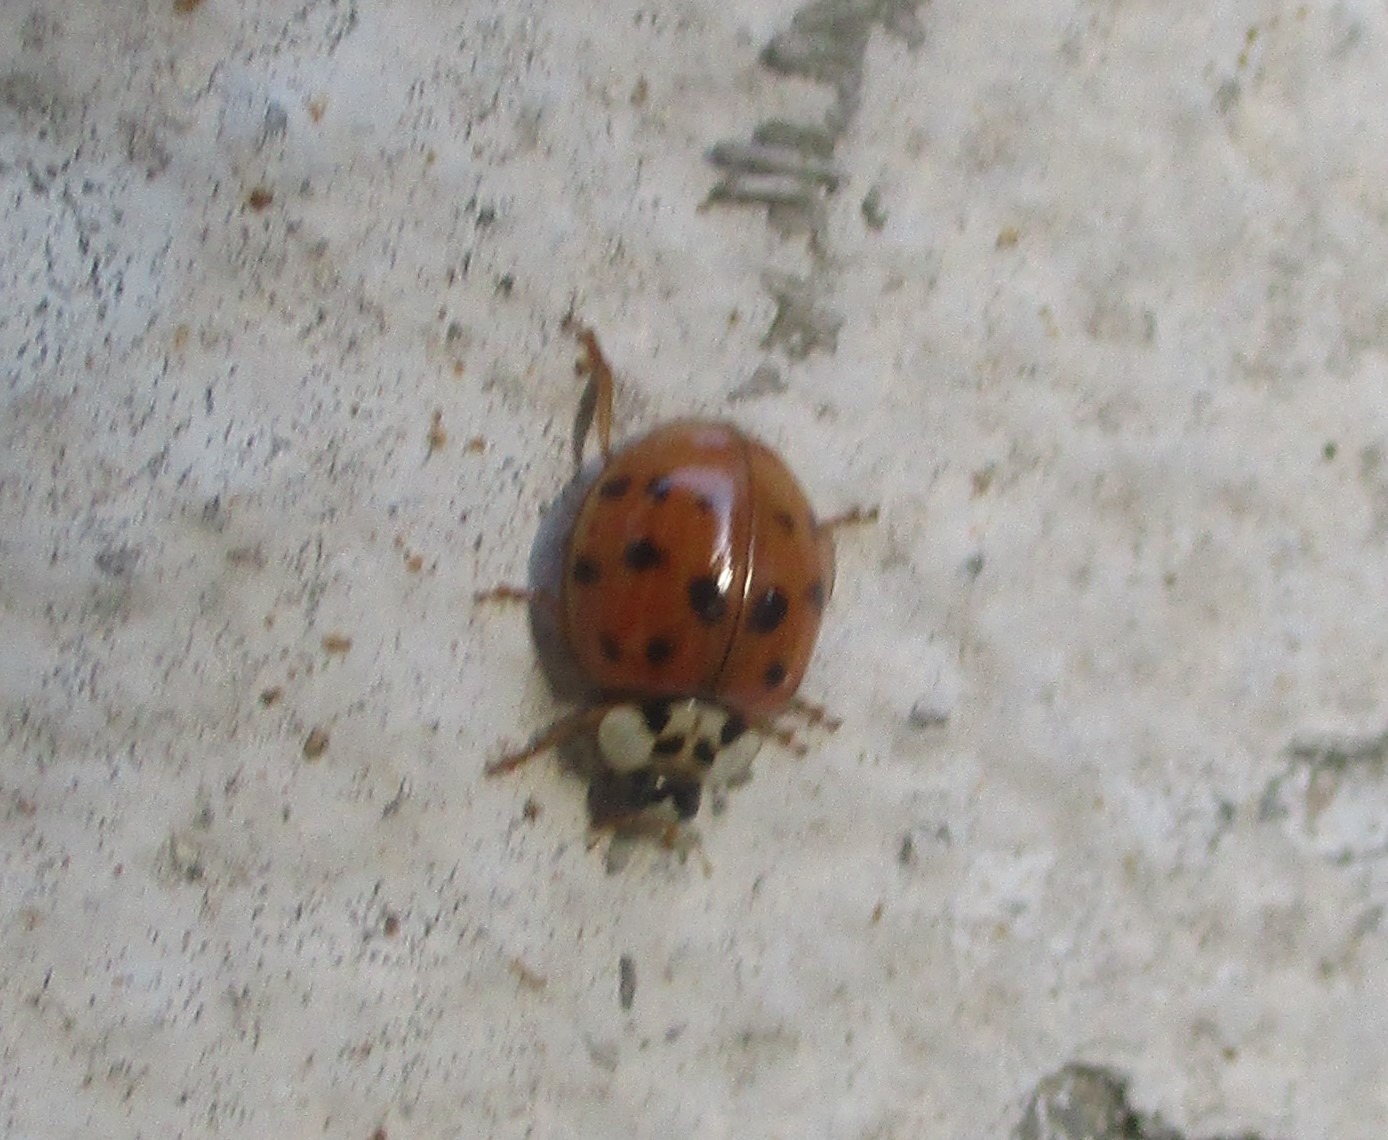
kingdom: Animalia
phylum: Arthropoda
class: Insecta
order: Coleoptera
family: Coccinellidae
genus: Harmonia
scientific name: Harmonia axyridis
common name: Harlekinmariehøne
